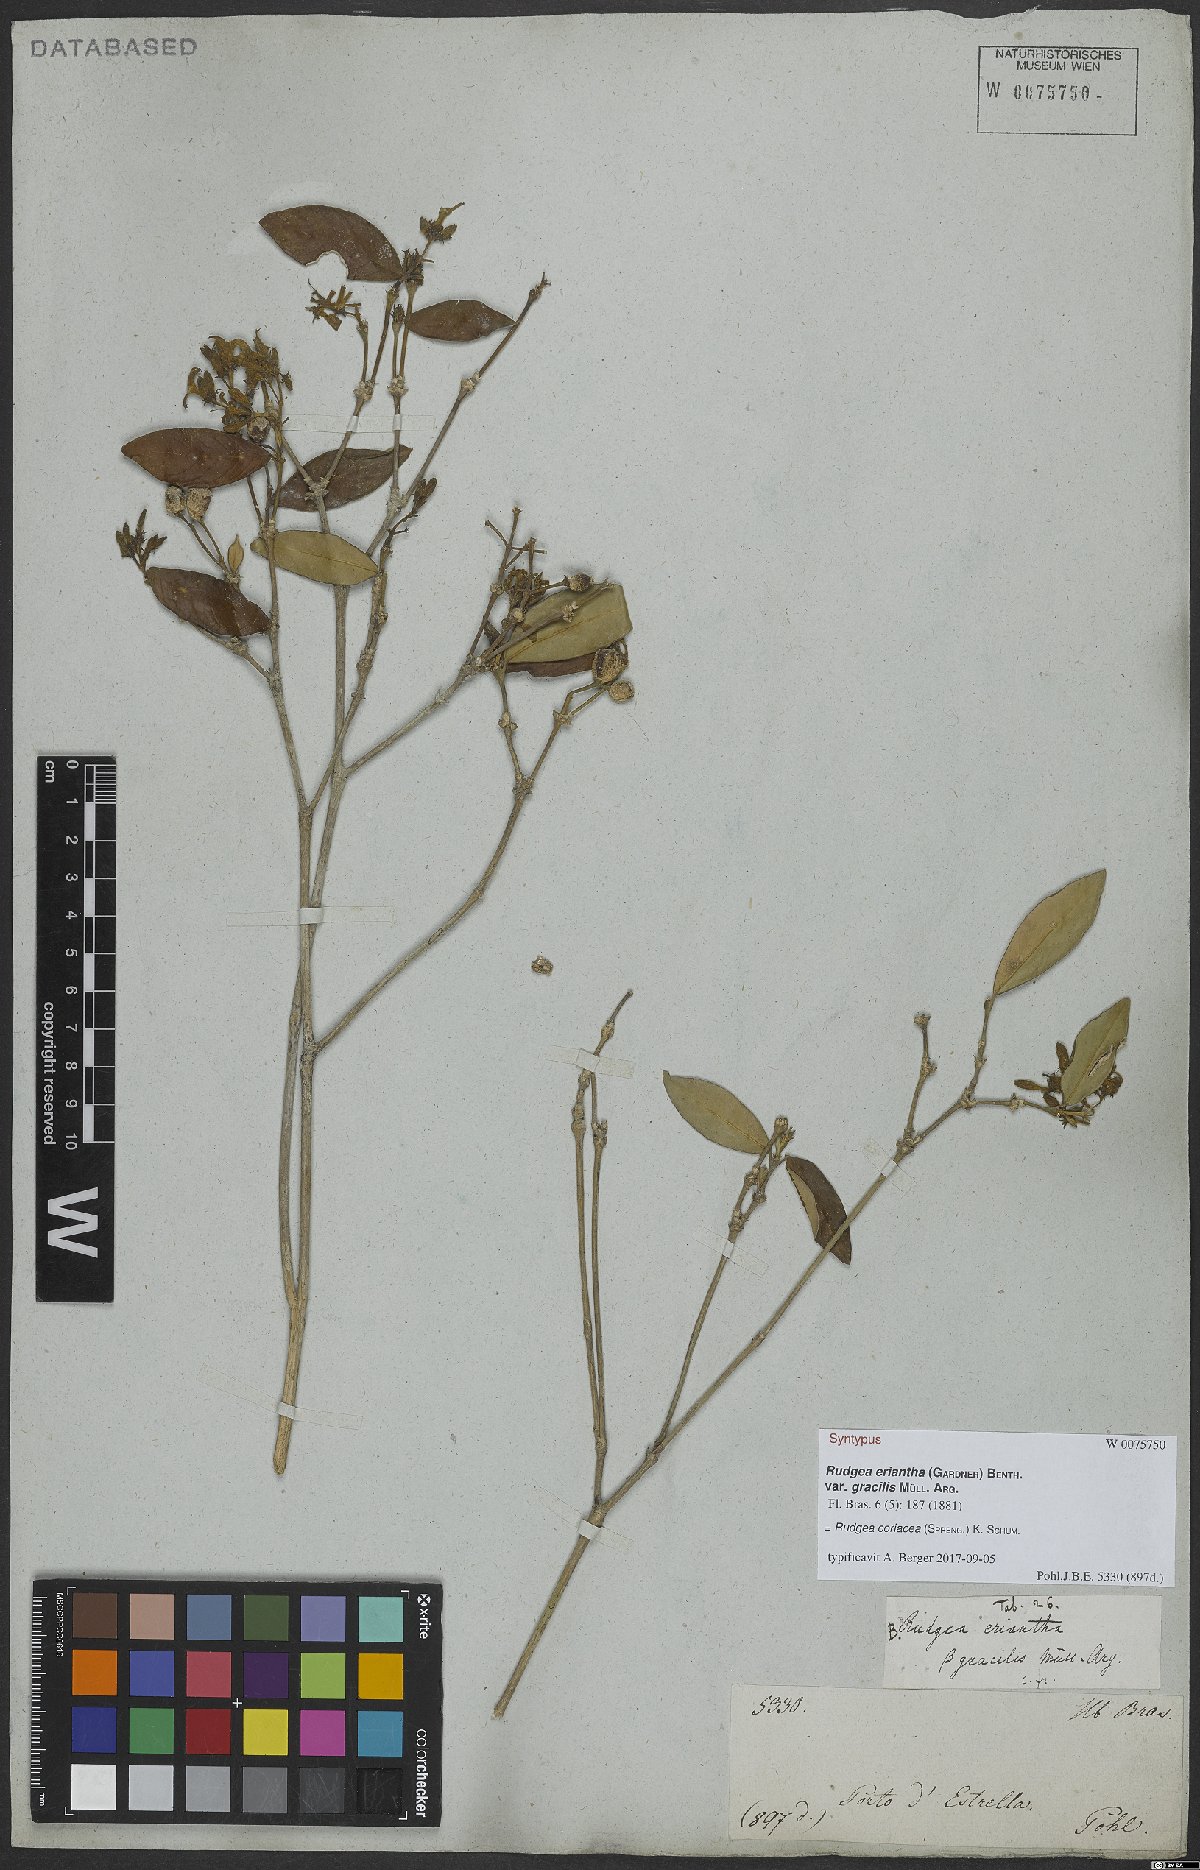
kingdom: Plantae
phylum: Tracheophyta
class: Magnoliopsida
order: Gentianales
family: Rubiaceae
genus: Rudgea
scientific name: Rudgea coriacea
